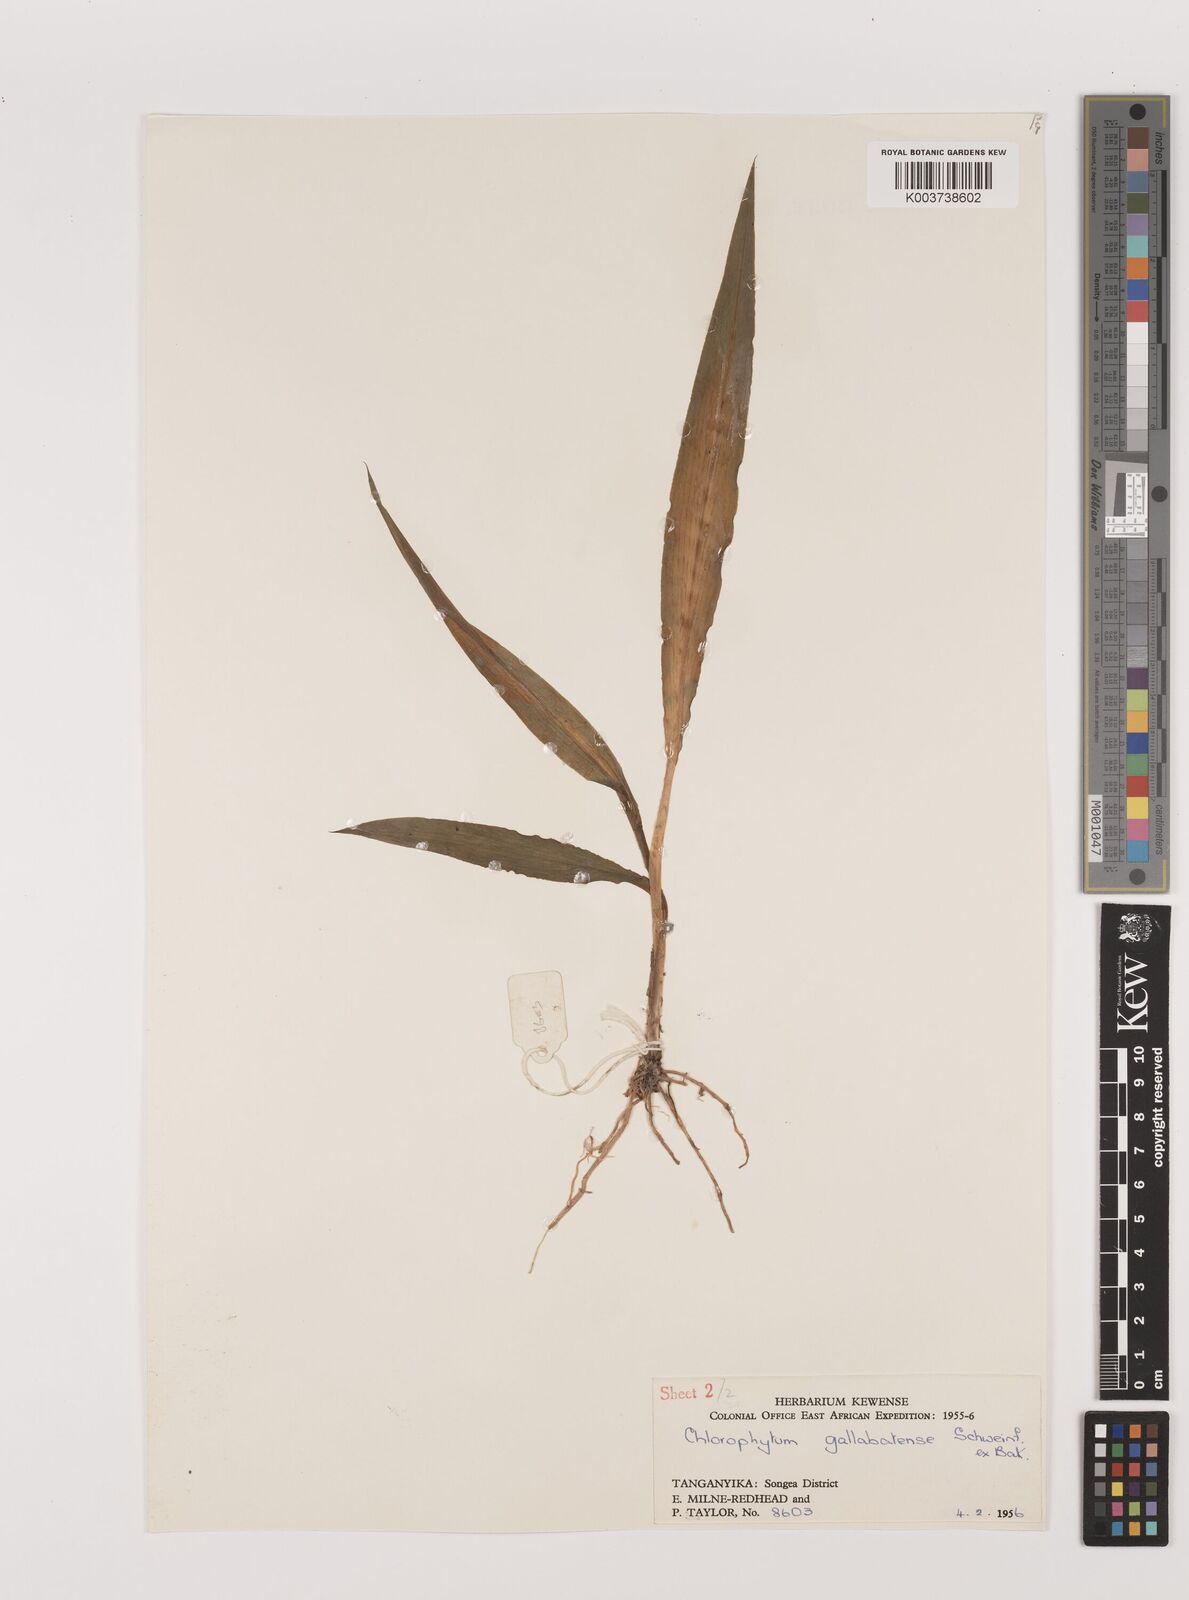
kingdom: Plantae
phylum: Tracheophyta
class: Liliopsida
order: Asparagales
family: Asparagaceae
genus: Chlorophytum
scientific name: Chlorophytum gallabatense
